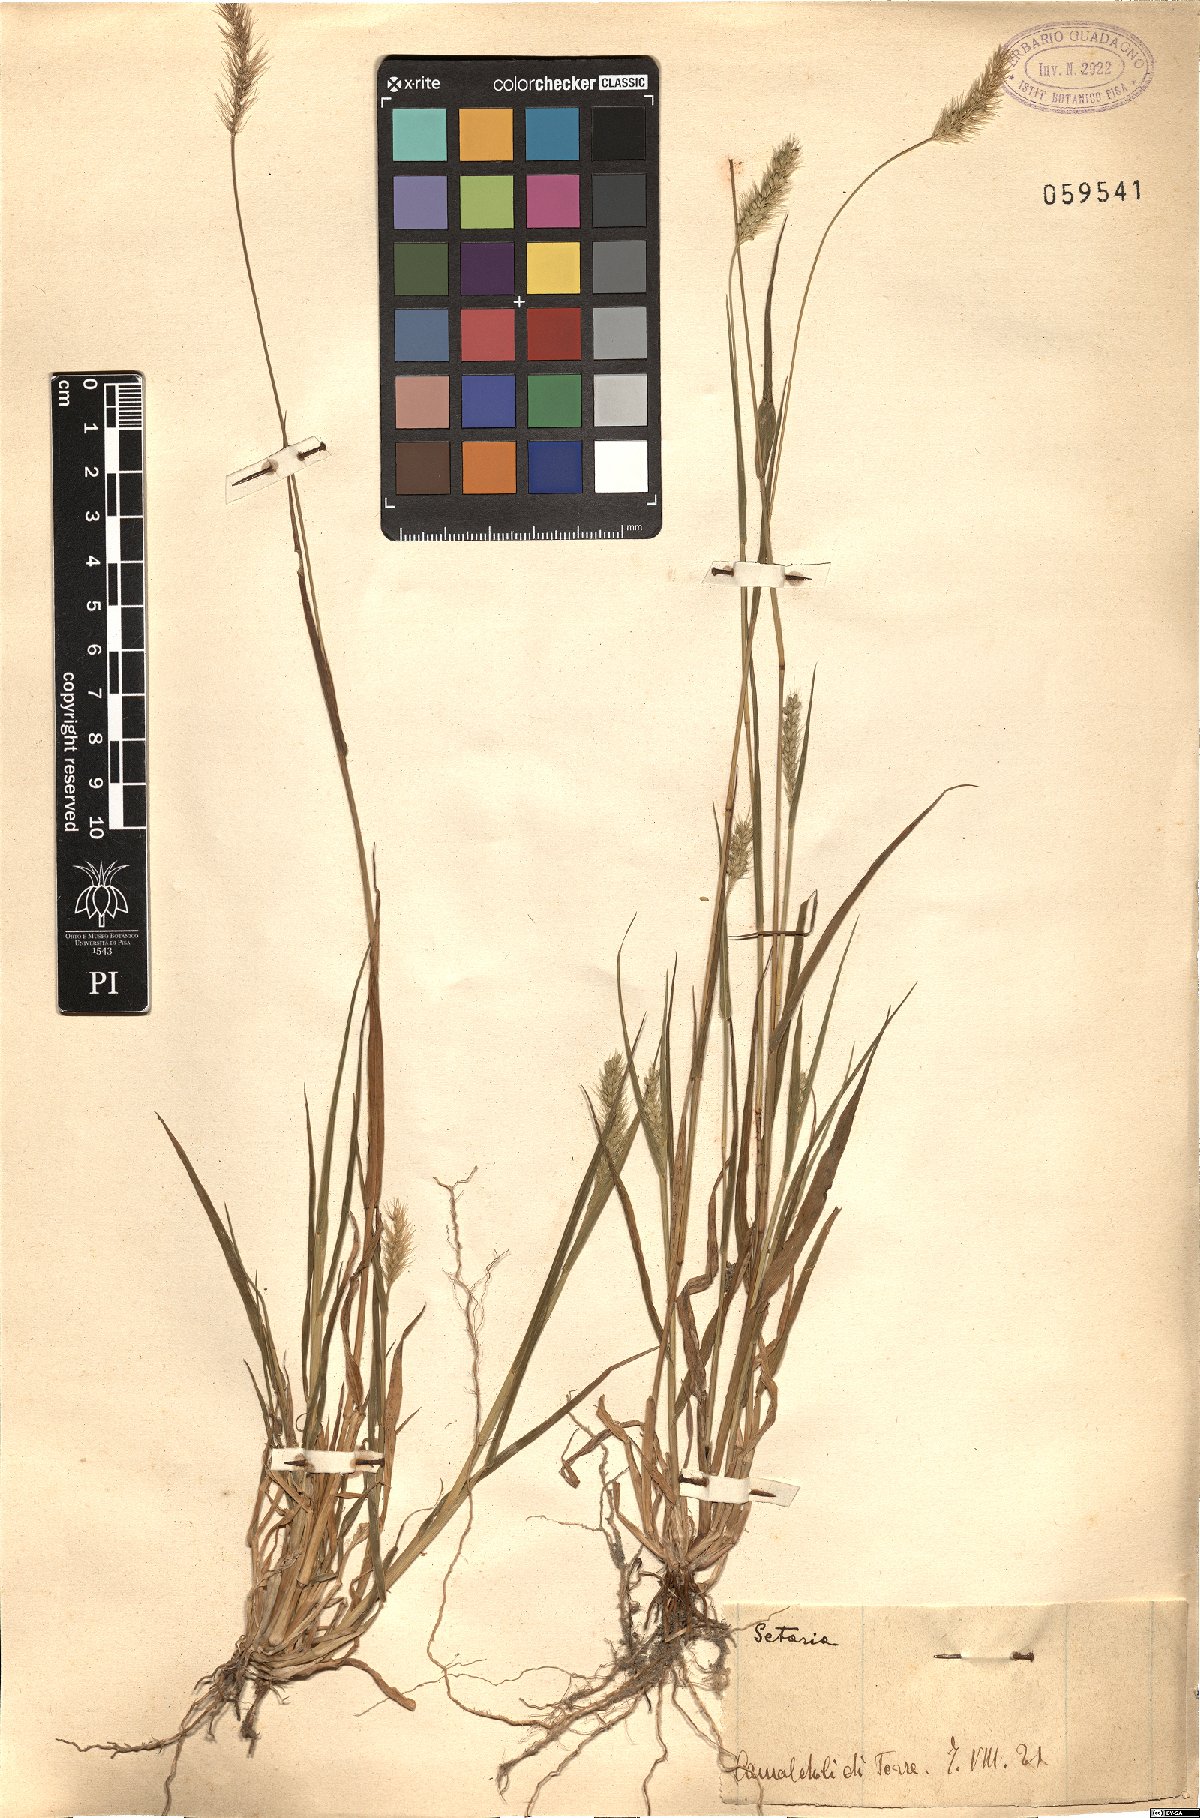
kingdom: Plantae
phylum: Tracheophyta
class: Liliopsida
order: Poales
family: Poaceae
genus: Setaria
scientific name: Setaria
